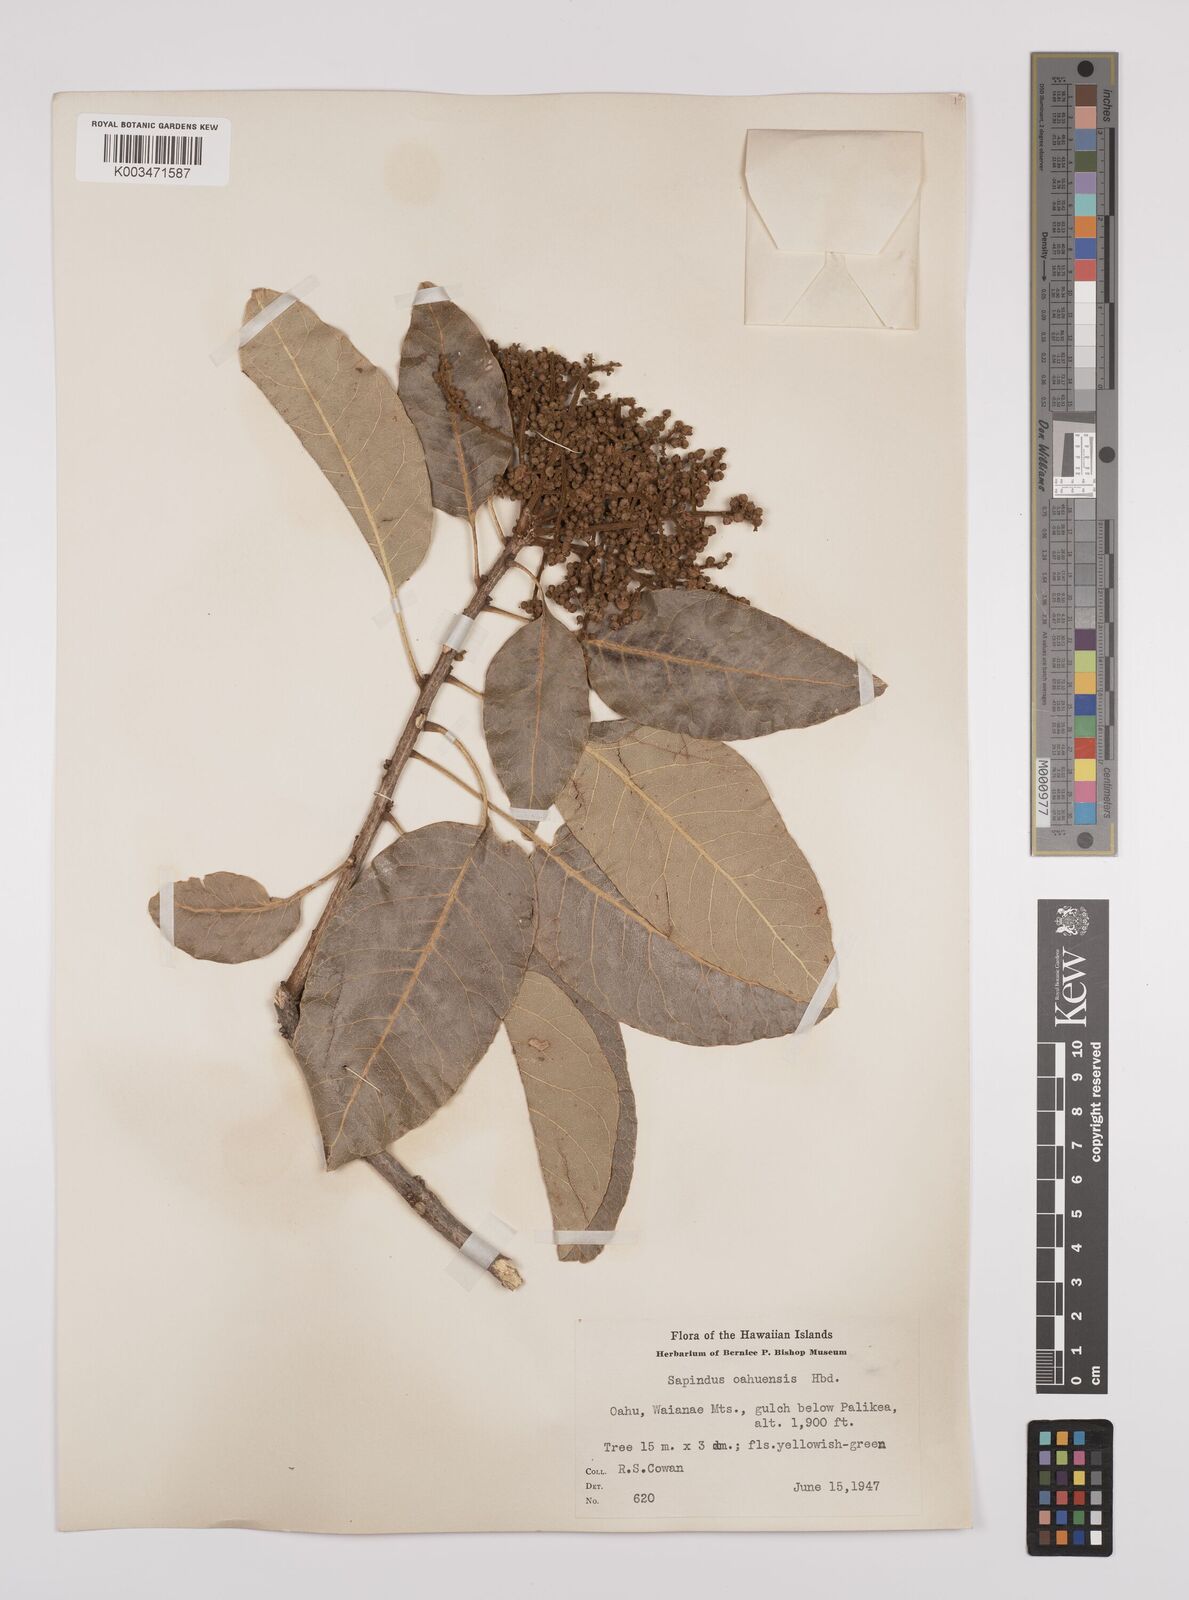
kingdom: Plantae
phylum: Tracheophyta
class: Magnoliopsida
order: Sapindales
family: Sapindaceae
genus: Sapindus
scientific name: Sapindus oahuensis
